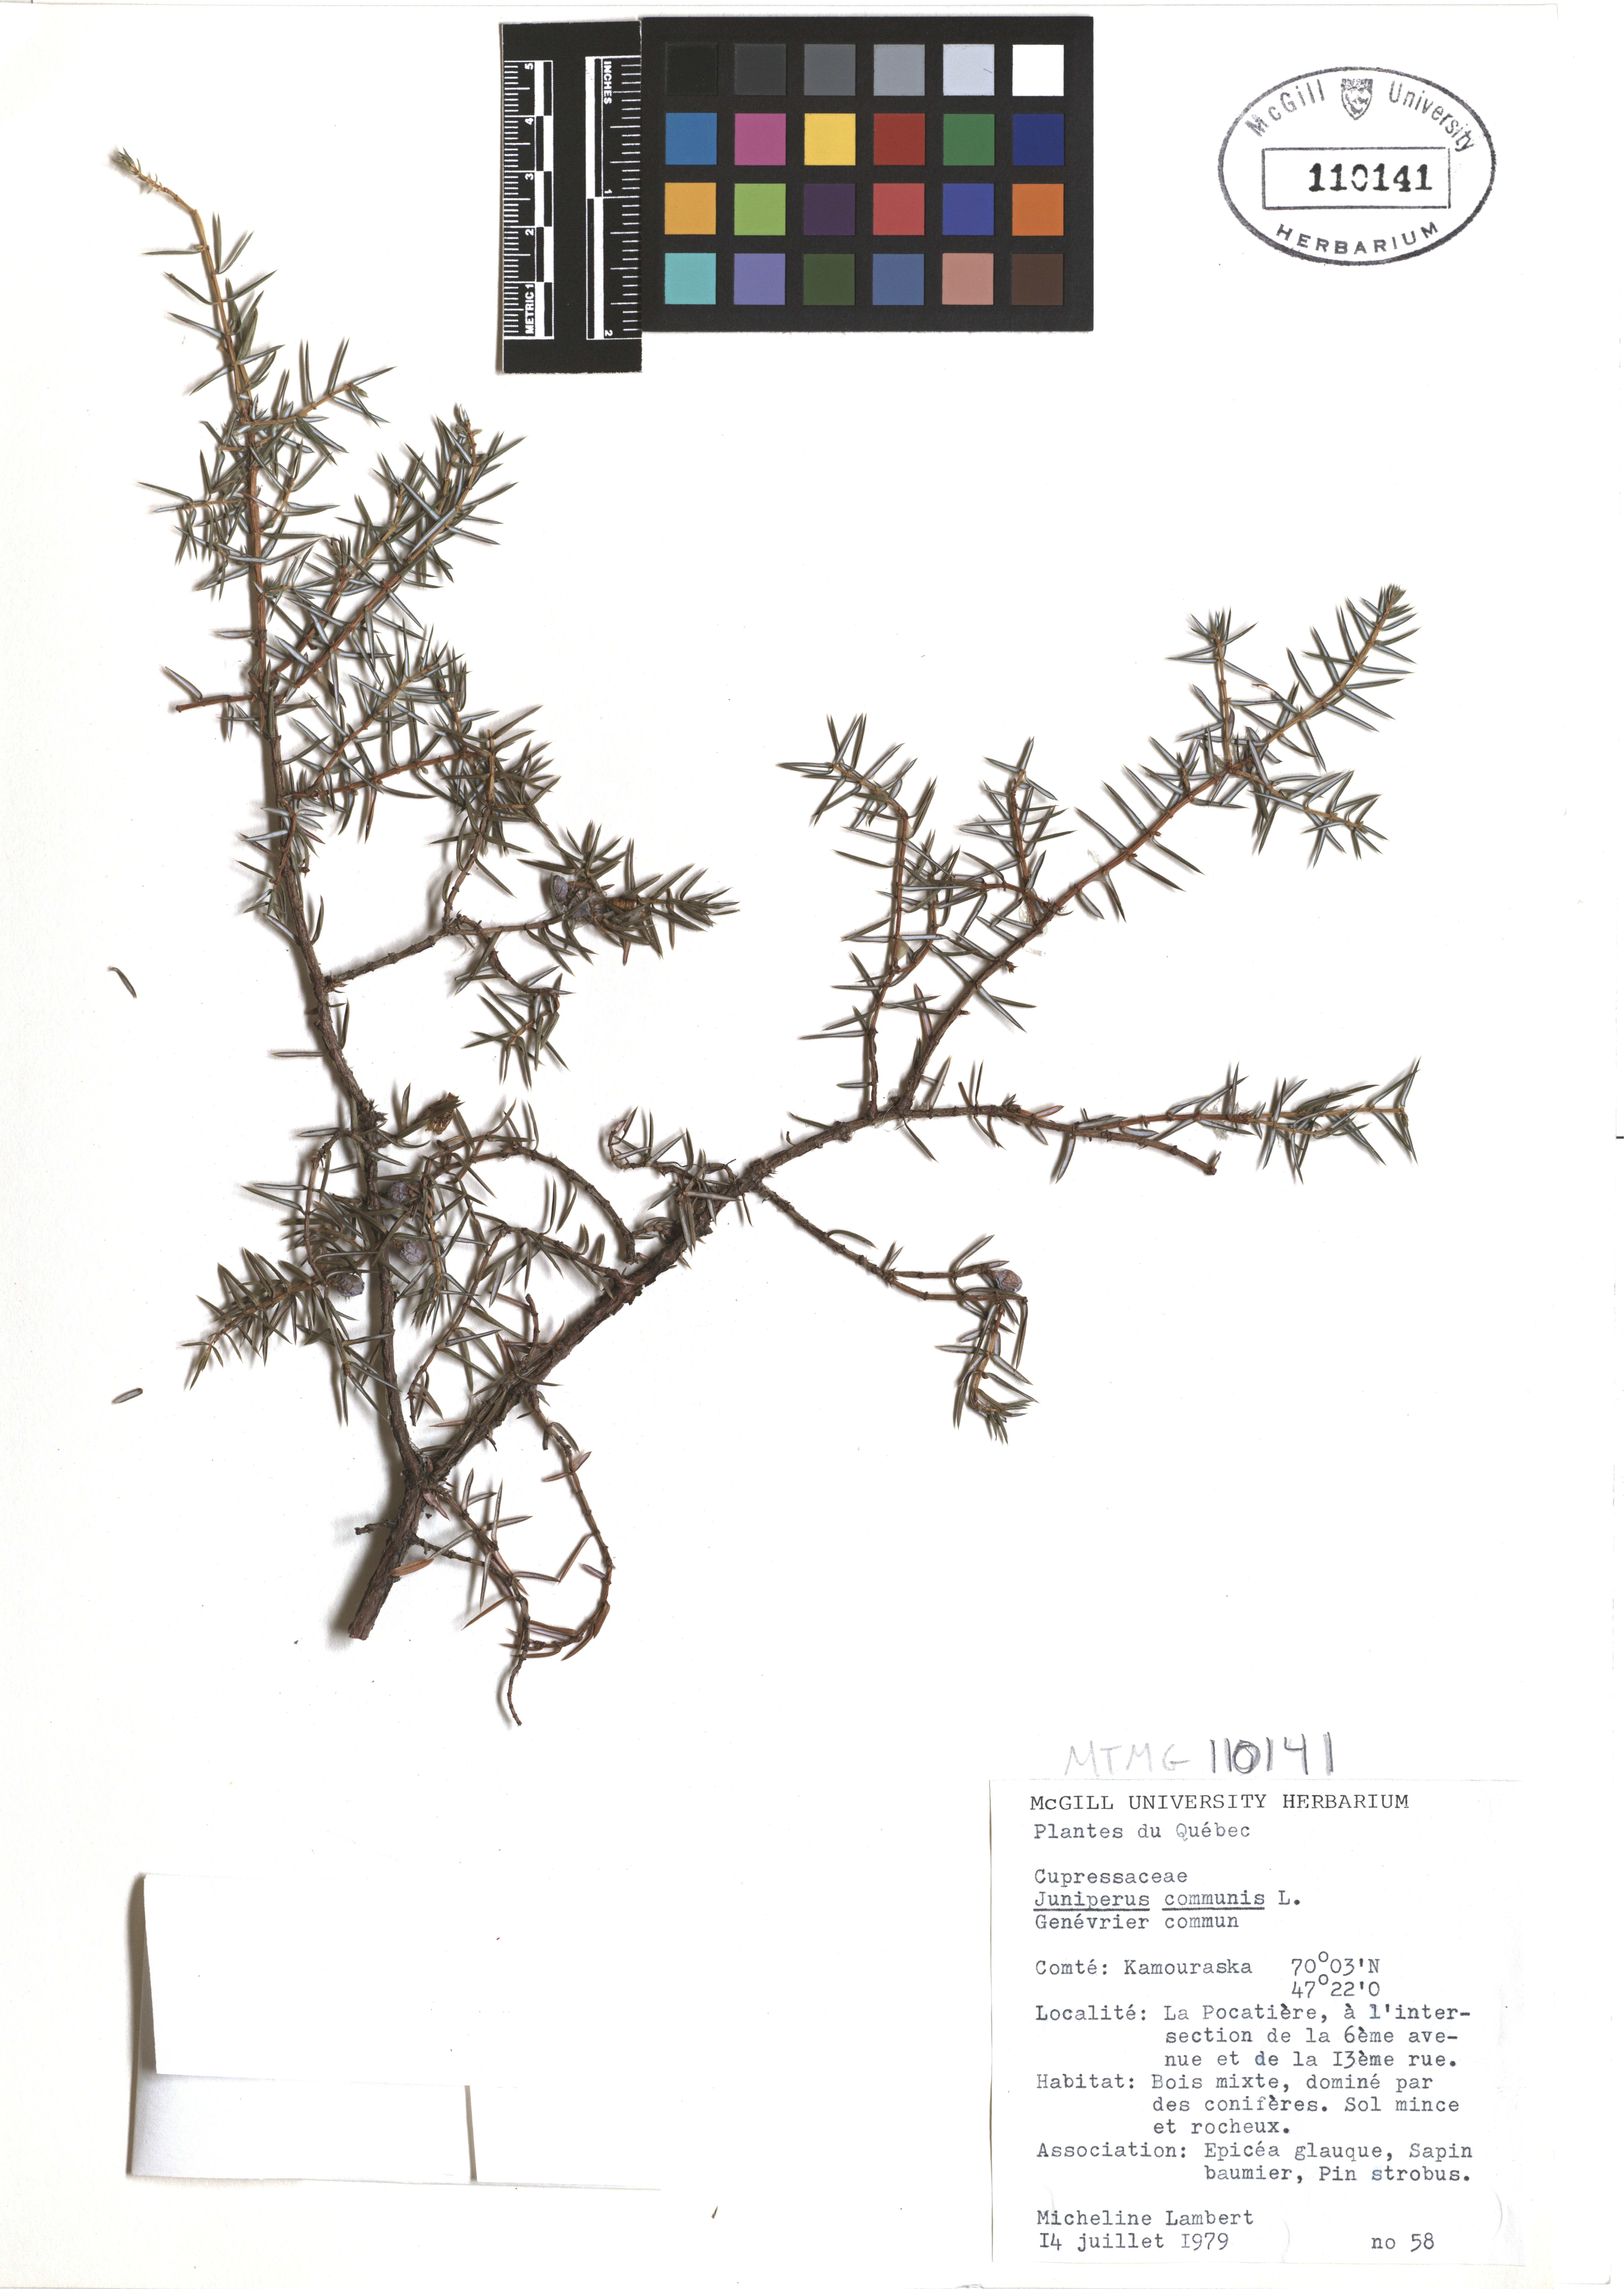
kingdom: Plantae
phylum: Tracheophyta
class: Pinopsida
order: Pinales
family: Cupressaceae
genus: Juniperus
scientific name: Juniperus communis
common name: Common juniper
